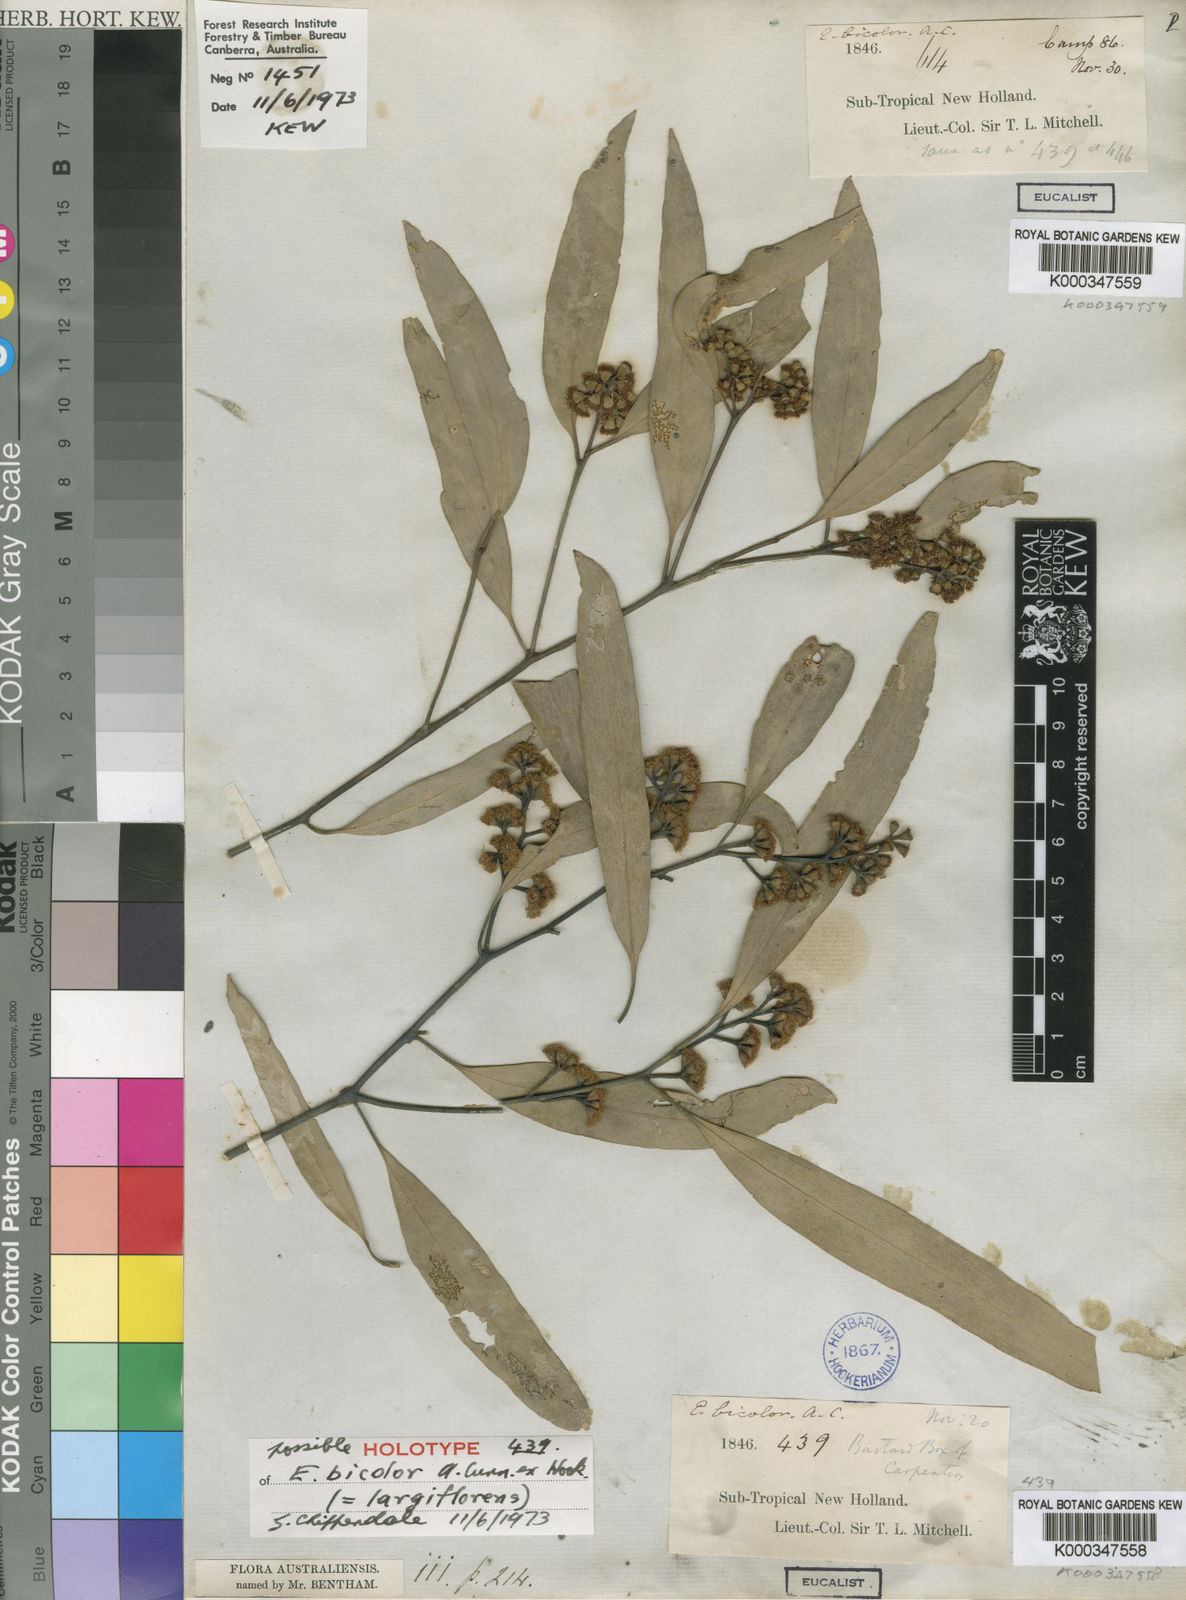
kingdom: Plantae
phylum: Tracheophyta
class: Magnoliopsida
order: Myrtales
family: Myrtaceae
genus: Eucalyptus
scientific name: Eucalyptus largiflorens
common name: Black-box
